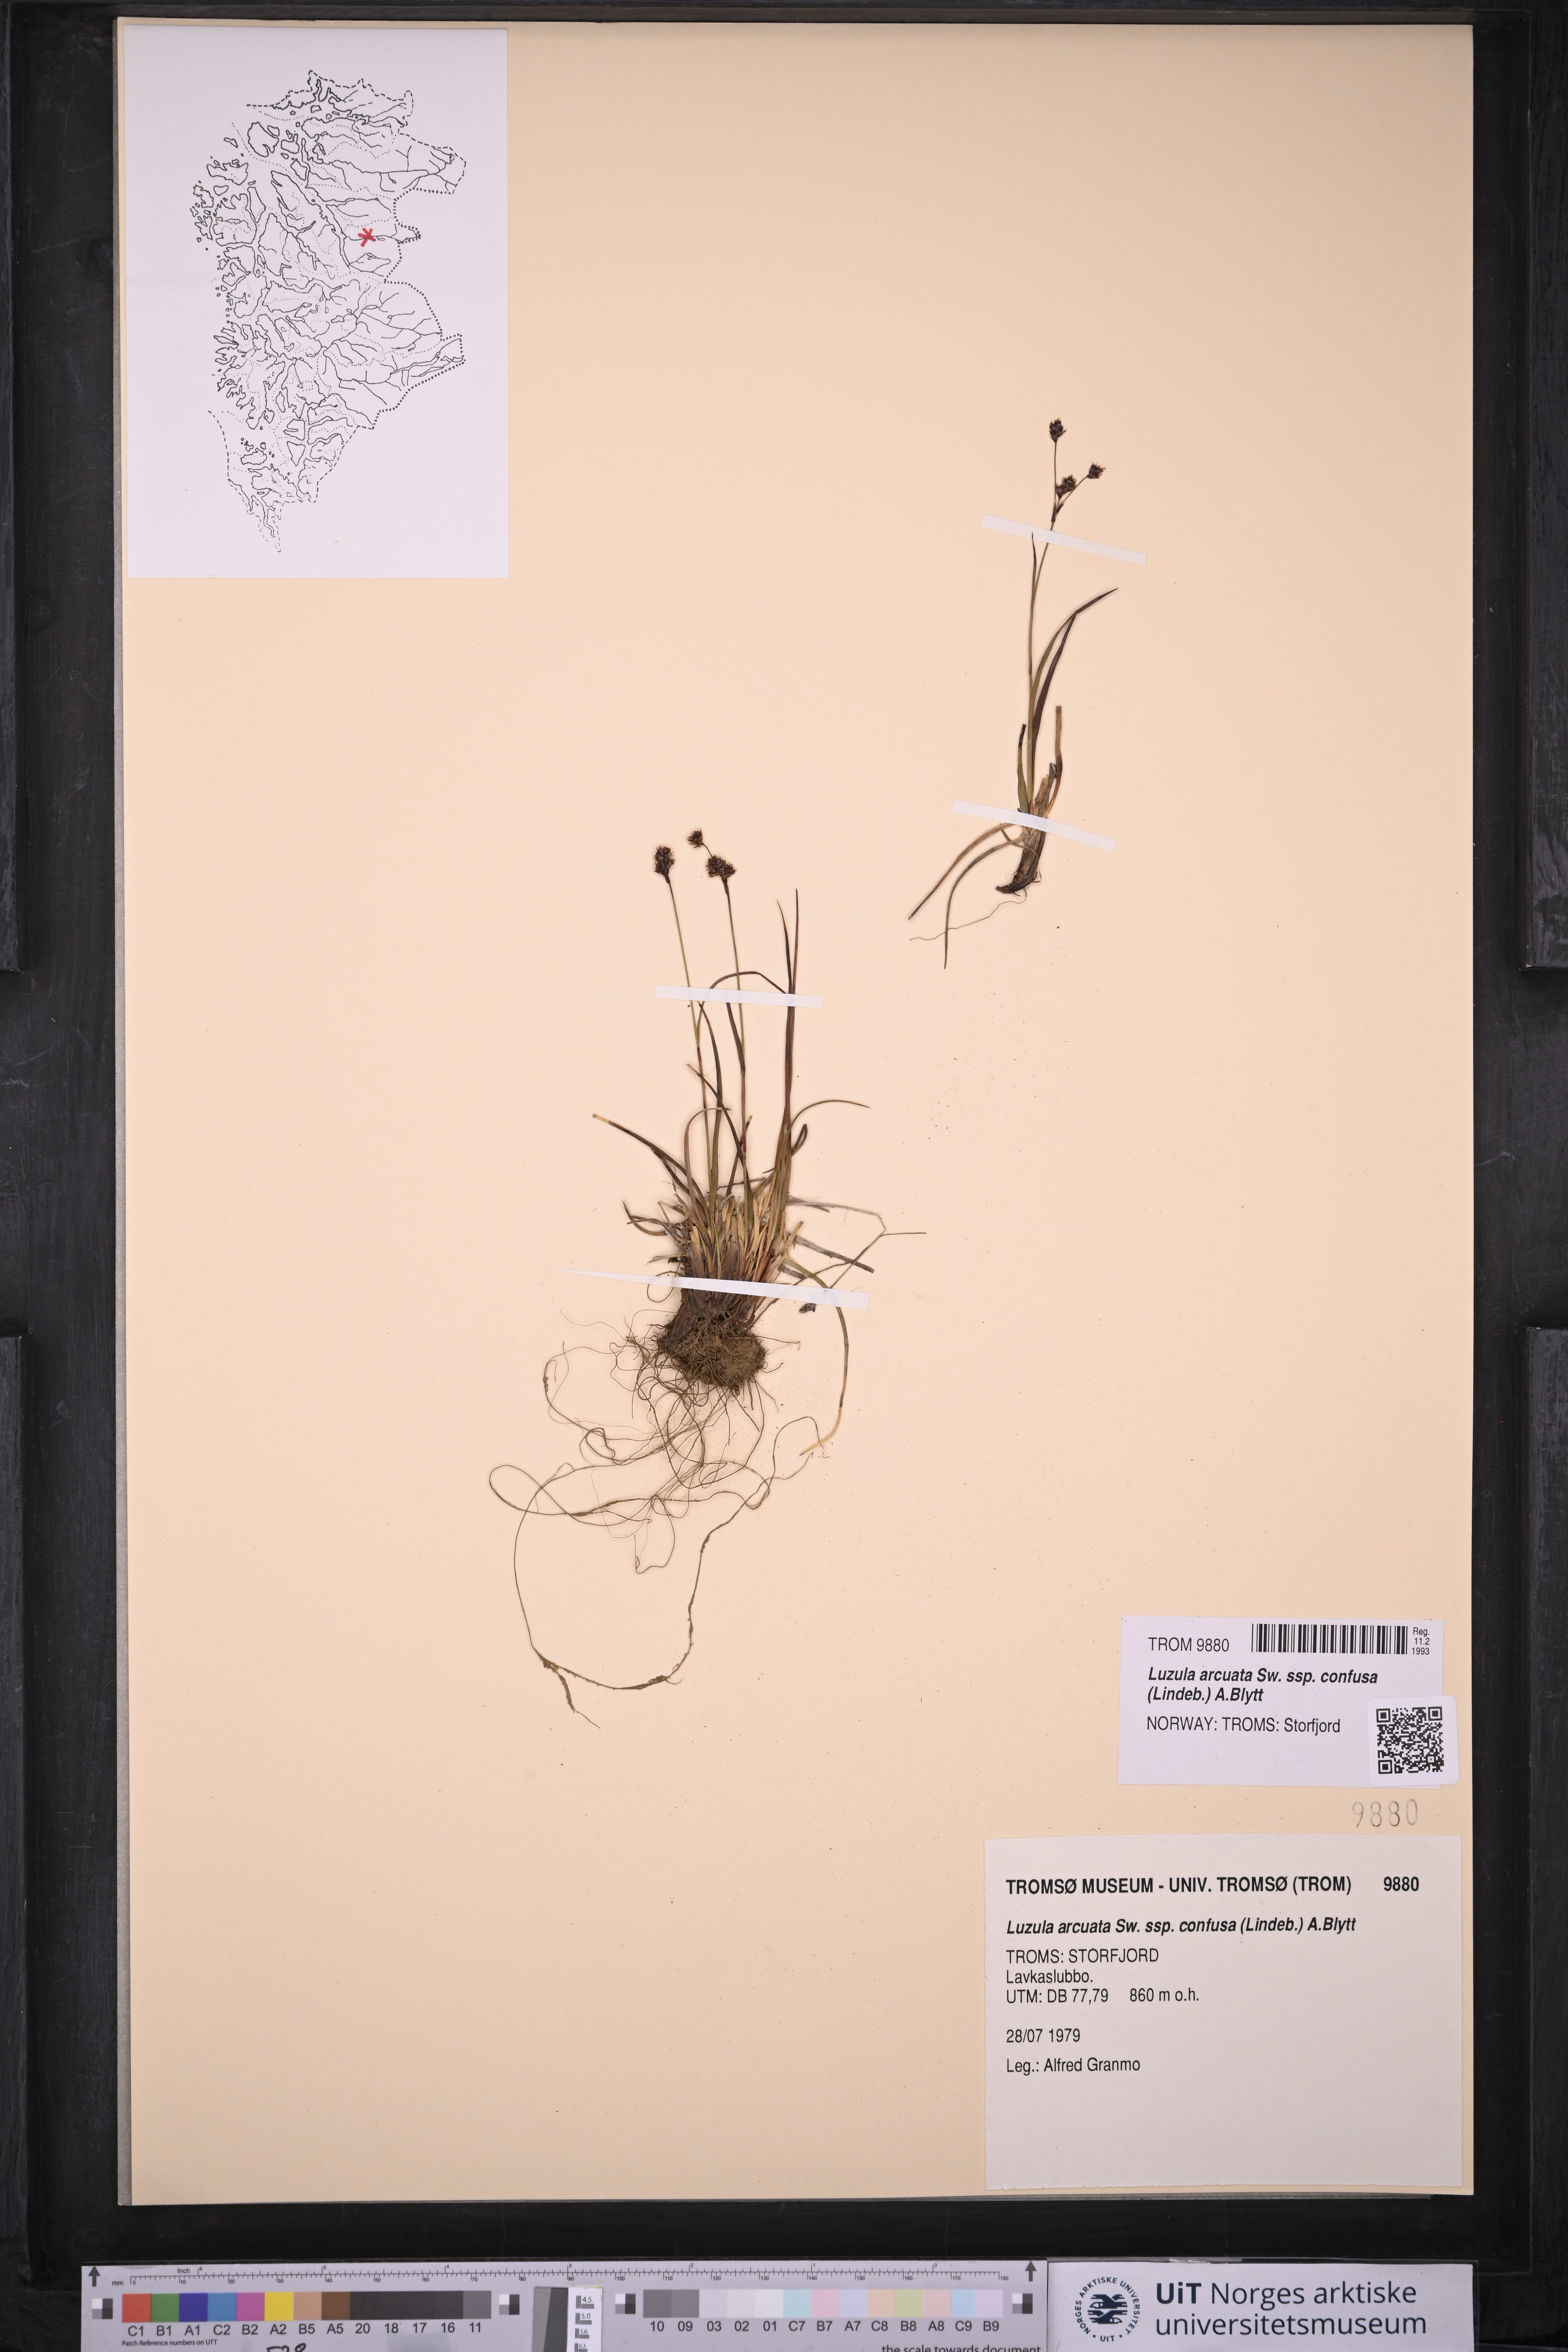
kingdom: Plantae
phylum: Tracheophyta
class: Liliopsida
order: Poales
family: Juncaceae
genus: Luzula
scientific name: Luzula confusa
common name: Northern wood rush
